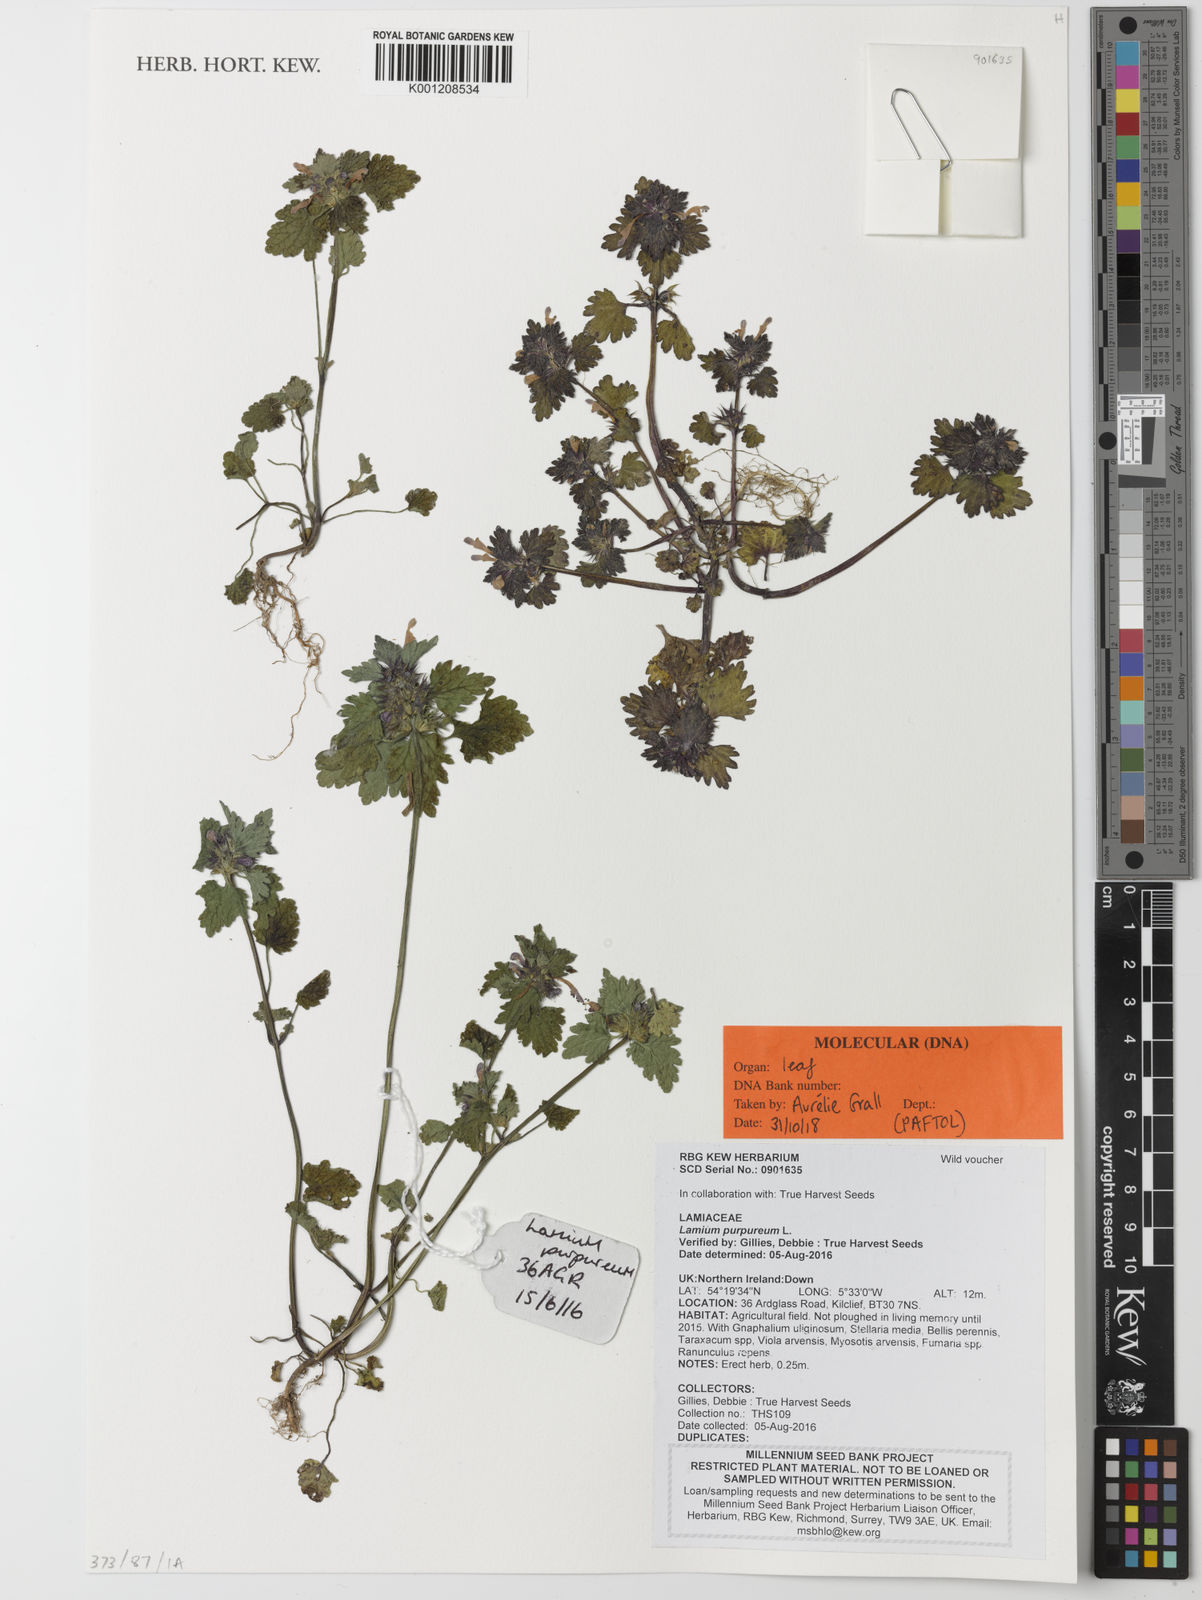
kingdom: Plantae
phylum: Tracheophyta
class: Magnoliopsida
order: Lamiales
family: Lamiaceae
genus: Lamium
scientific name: Lamium purpureum
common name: Red dead-nettle
